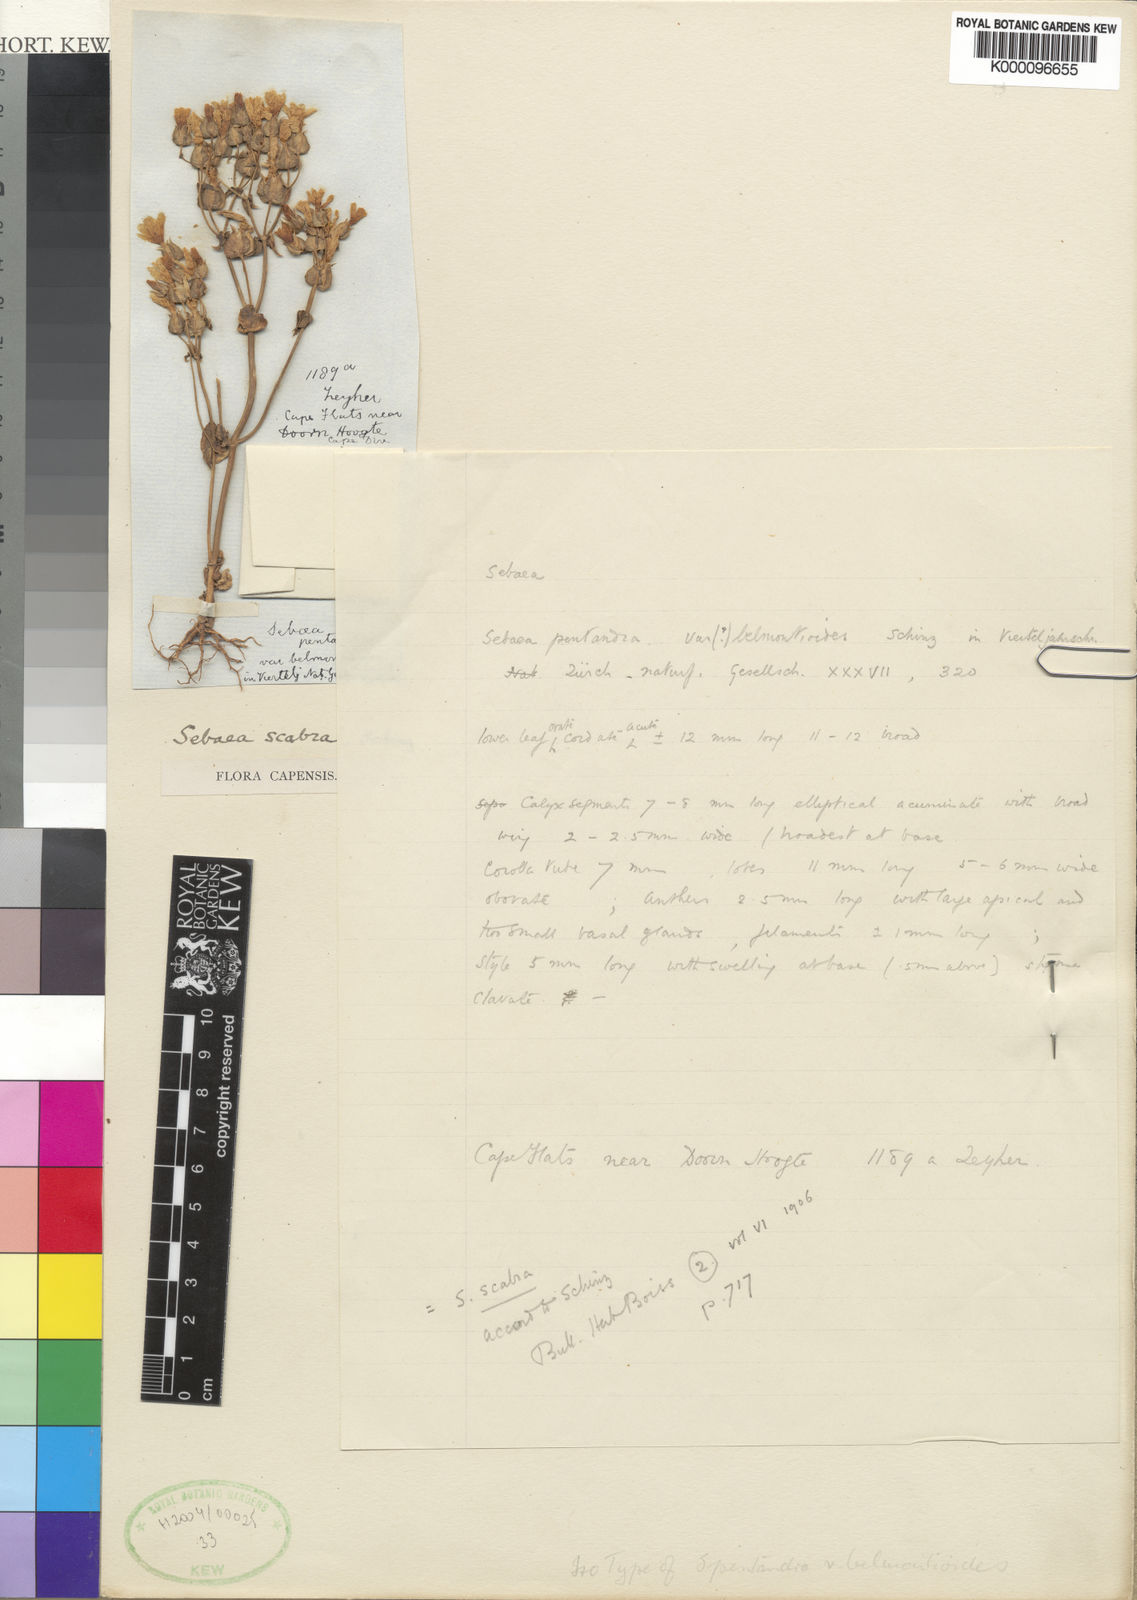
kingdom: Plantae
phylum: Tracheophyta
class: Magnoliopsida
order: Gentianales
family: Gentianaceae
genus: Sebaea
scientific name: Sebaea scabra
